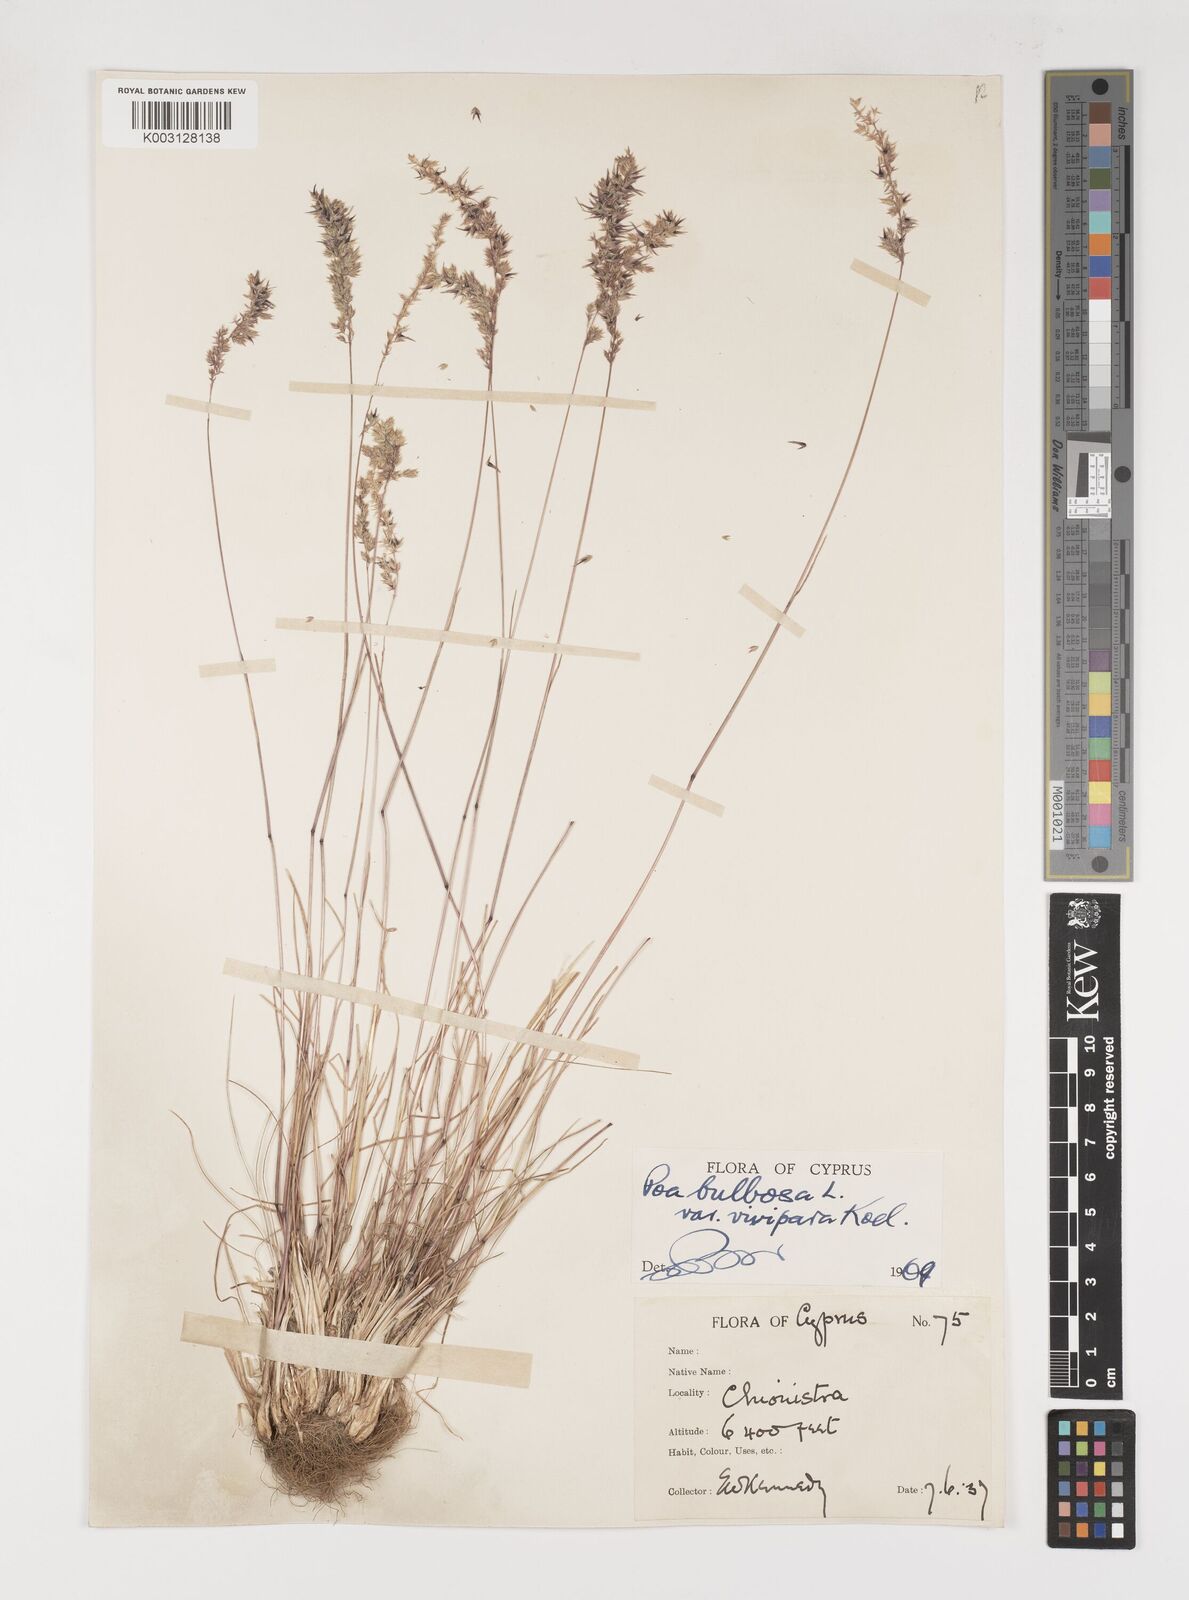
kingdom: Plantae
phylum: Tracheophyta
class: Liliopsida
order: Poales
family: Poaceae
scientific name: Poaceae
